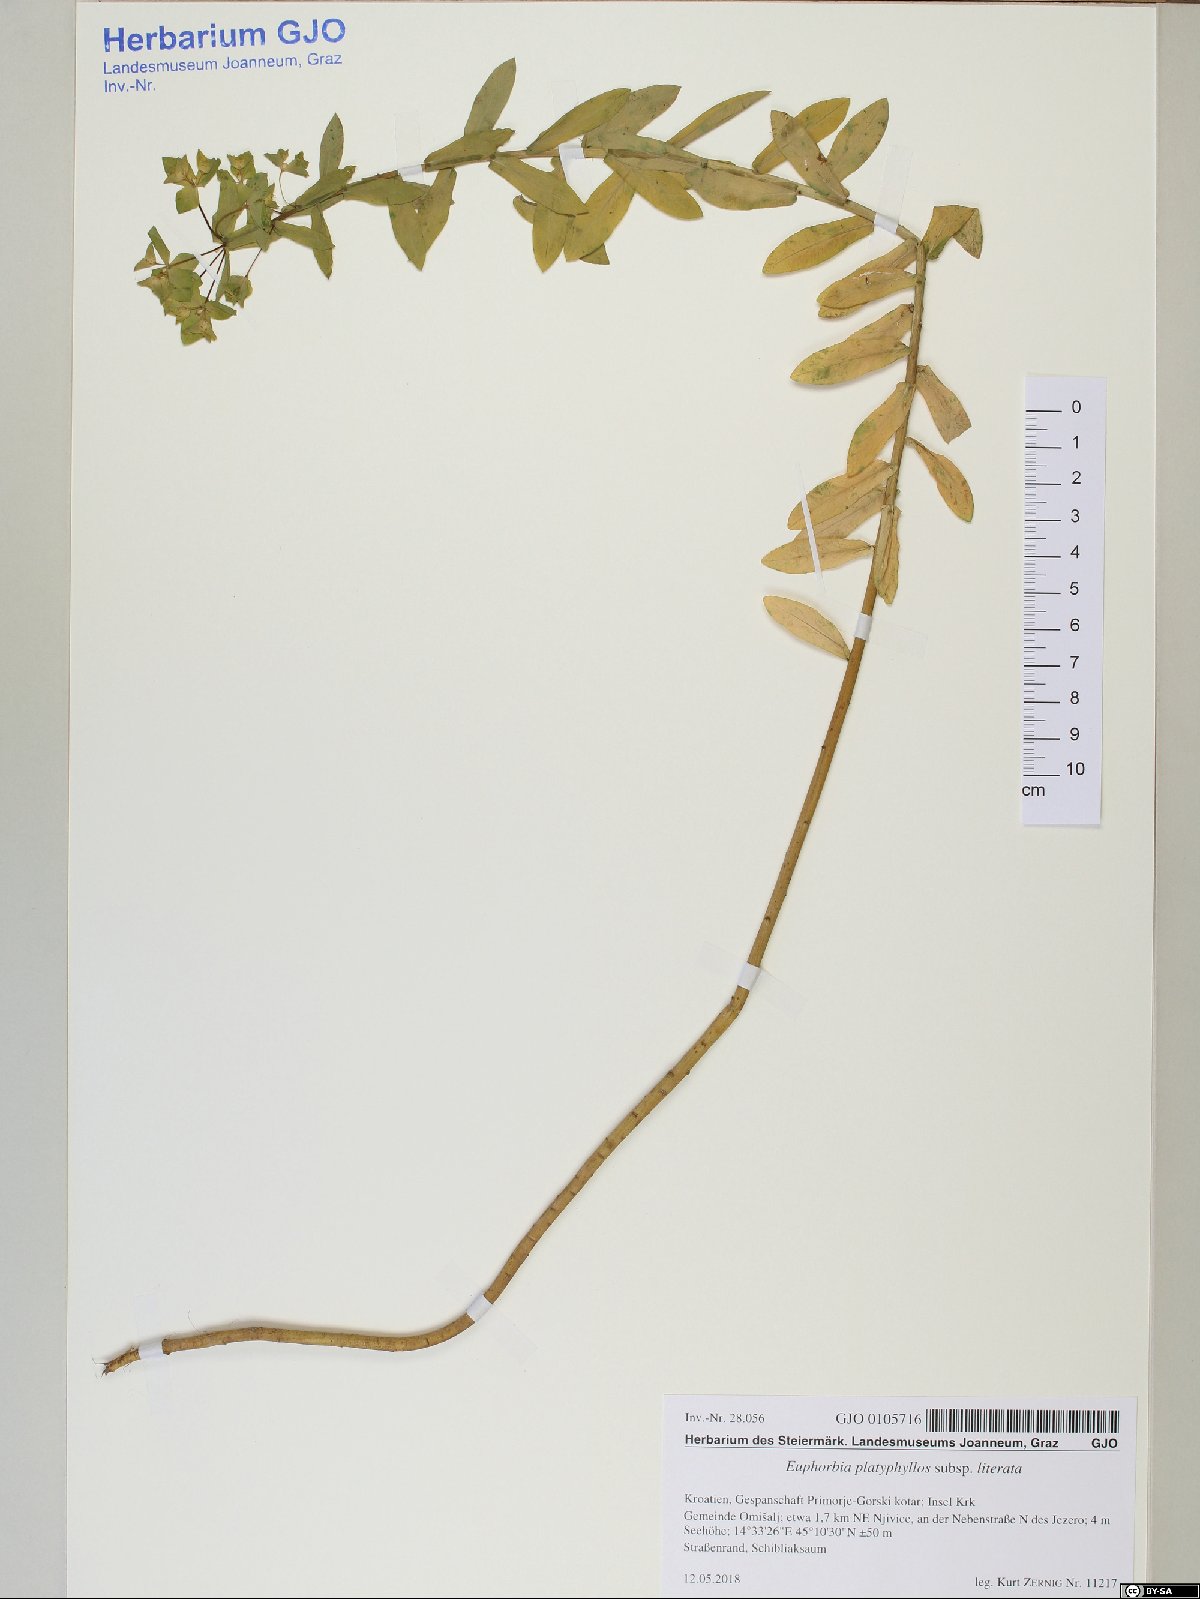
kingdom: Plantae
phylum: Tracheophyta
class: Magnoliopsida
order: Malpighiales
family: Euphorbiaceae
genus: Euphorbia
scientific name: Euphorbia platyphyllos
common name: Broad-leaved spurge
